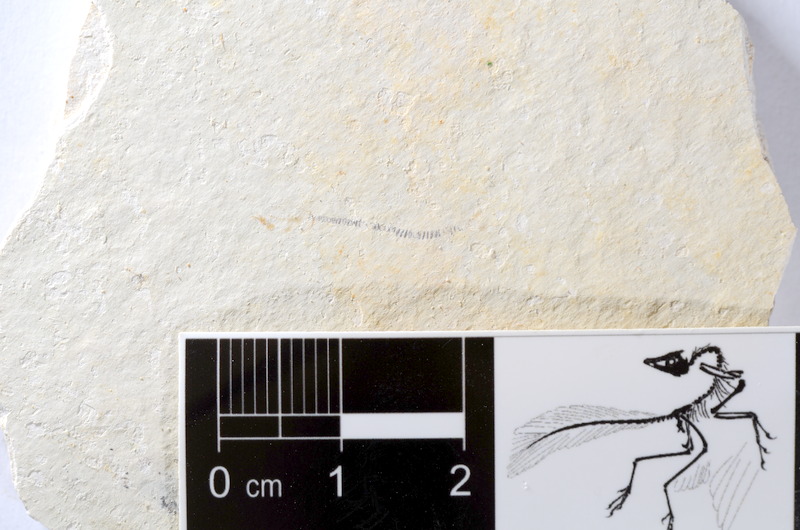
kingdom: Animalia
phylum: Chordata
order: Salmoniformes
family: Orthogonikleithridae
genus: Orthogonikleithrus
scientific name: Orthogonikleithrus hoelli
